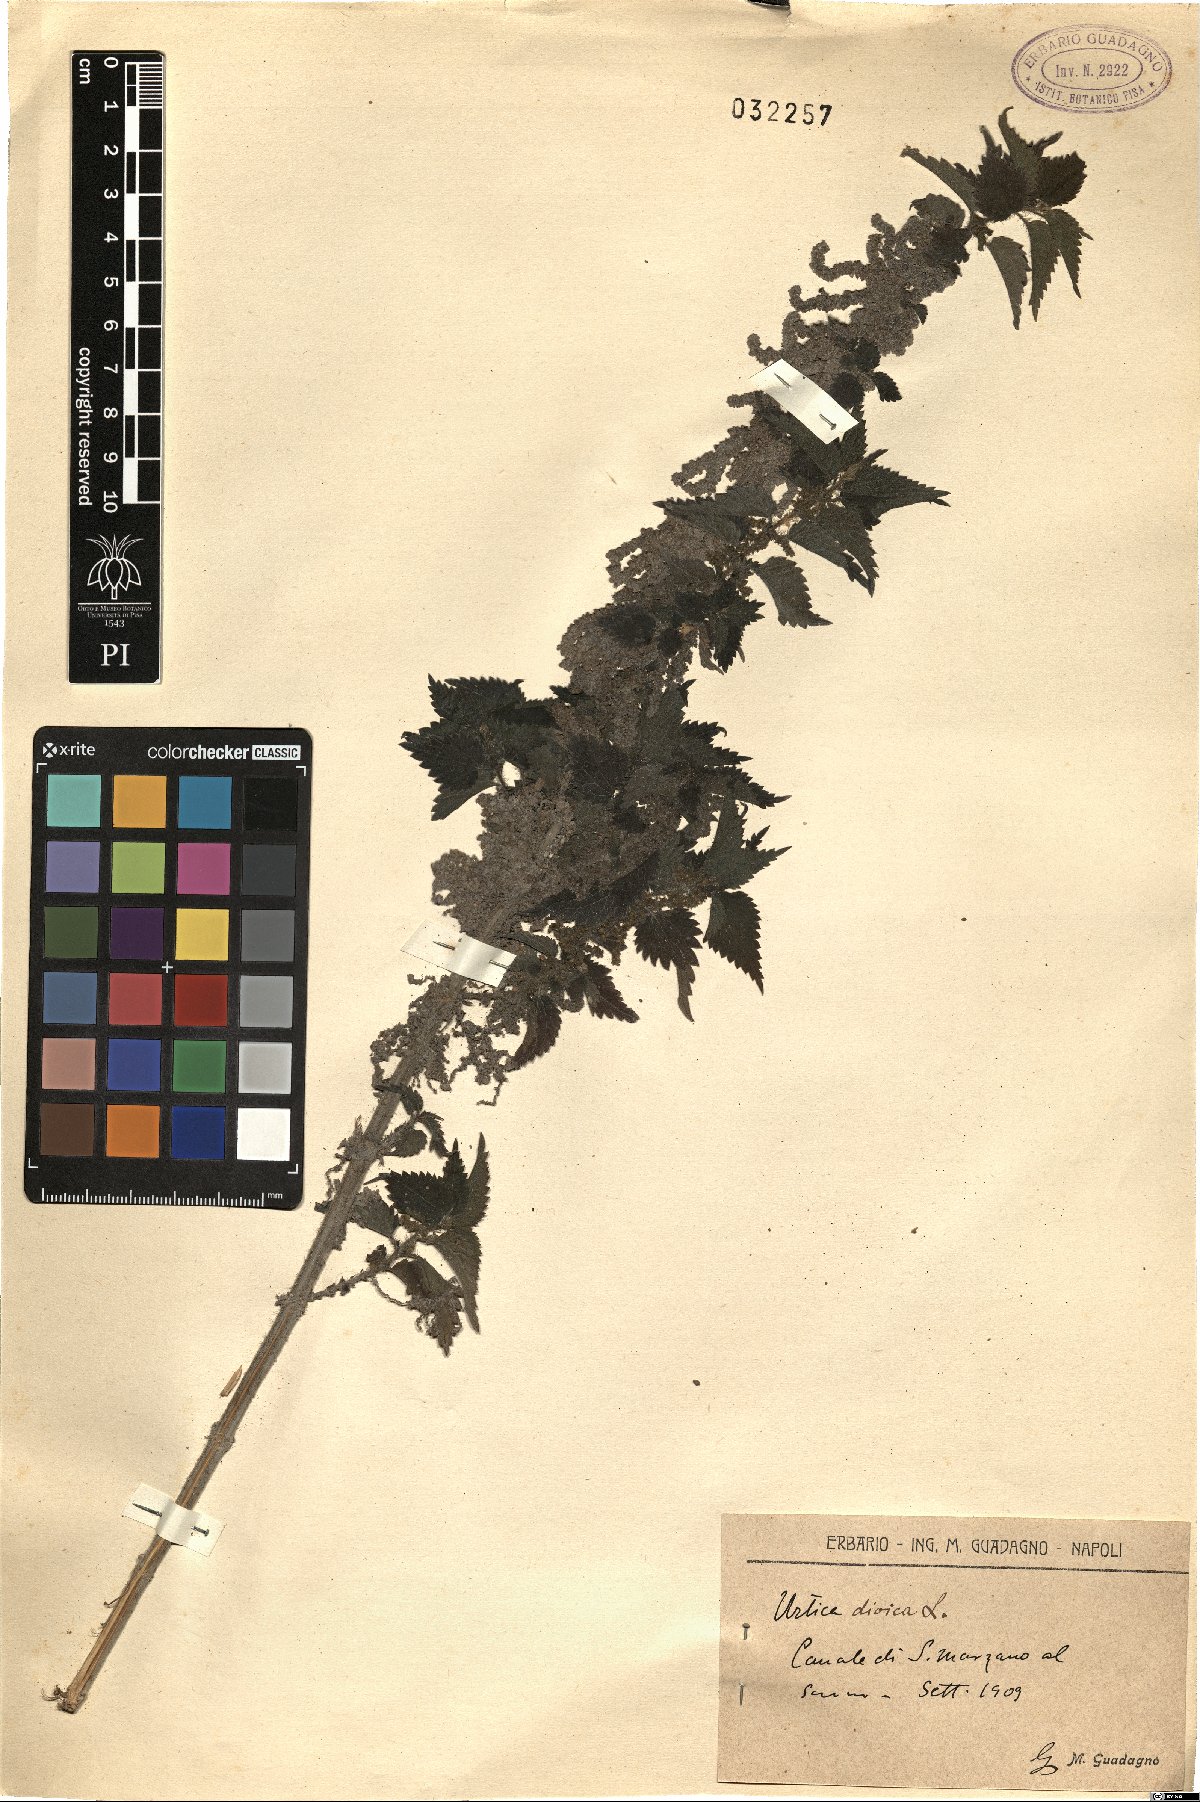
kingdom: Plantae
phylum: Tracheophyta
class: Magnoliopsida
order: Rosales
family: Urticaceae
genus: Urtica
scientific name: Urtica dioica
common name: Common nettle
